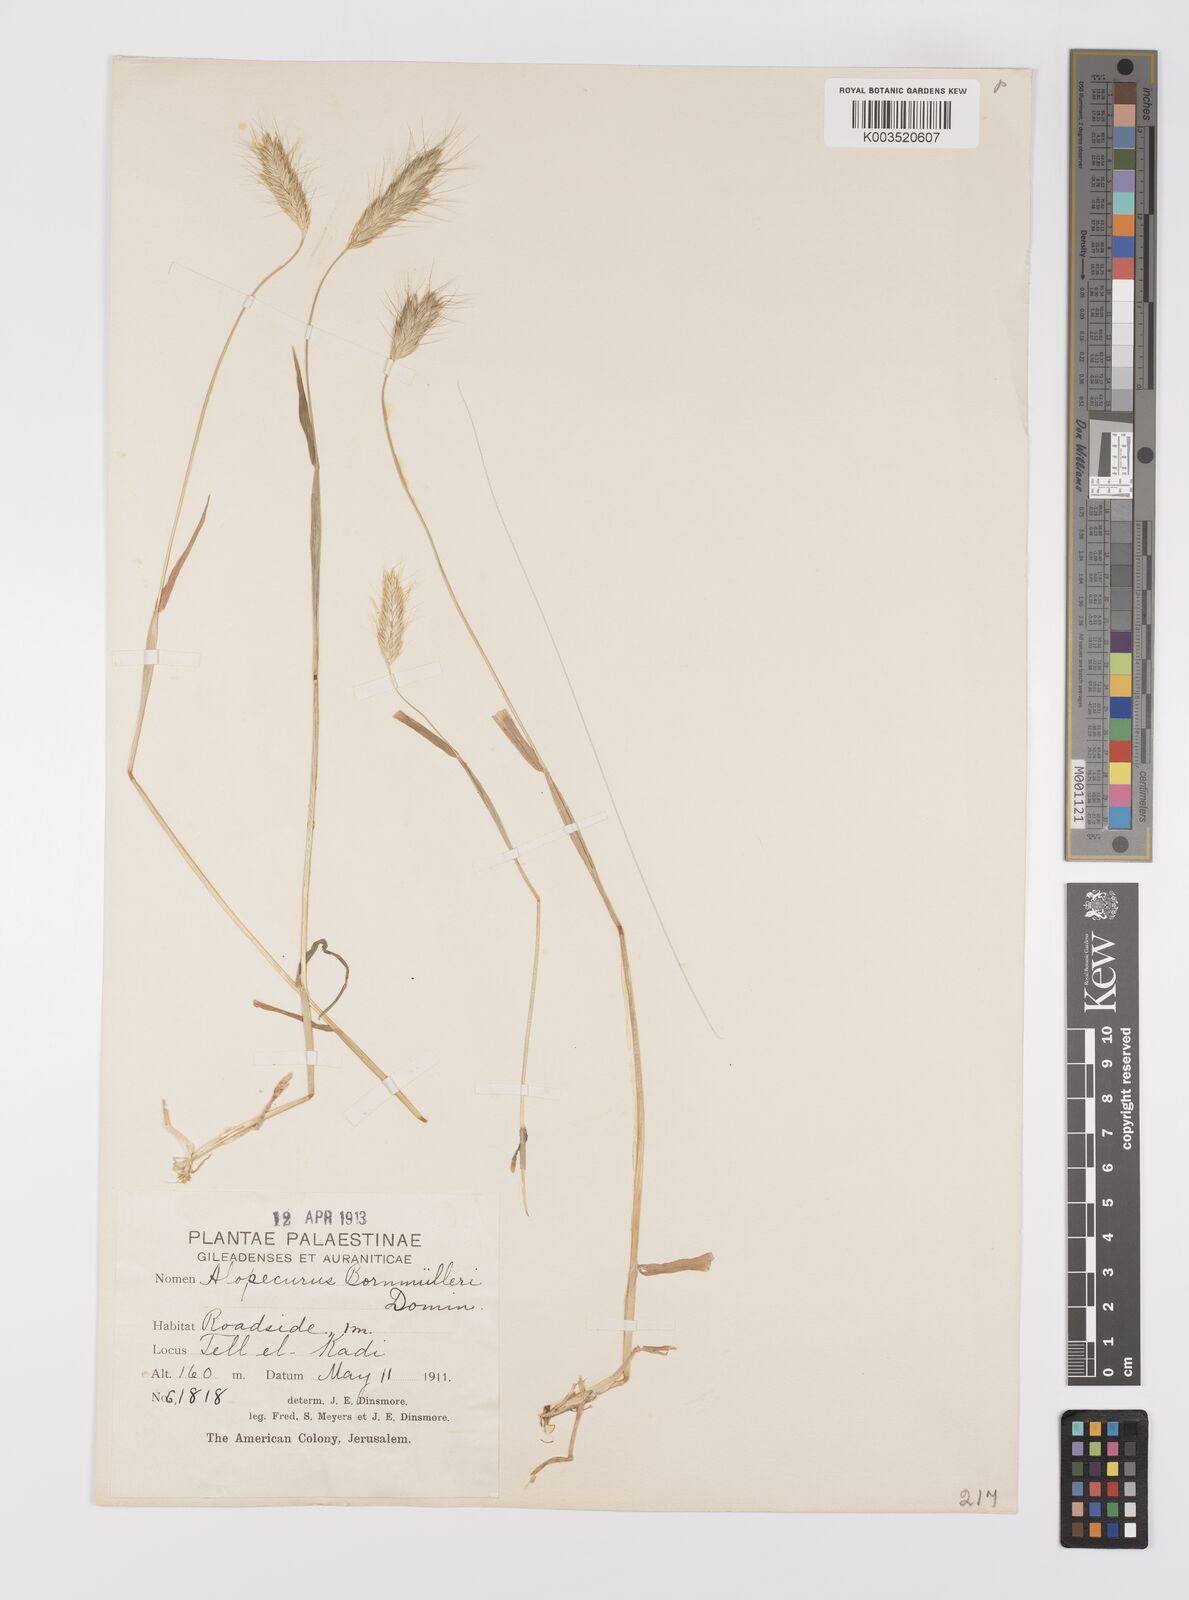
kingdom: Plantae
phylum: Tracheophyta
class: Liliopsida
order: Poales
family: Poaceae
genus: Alopecurus
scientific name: Alopecurus bornmuelleri
